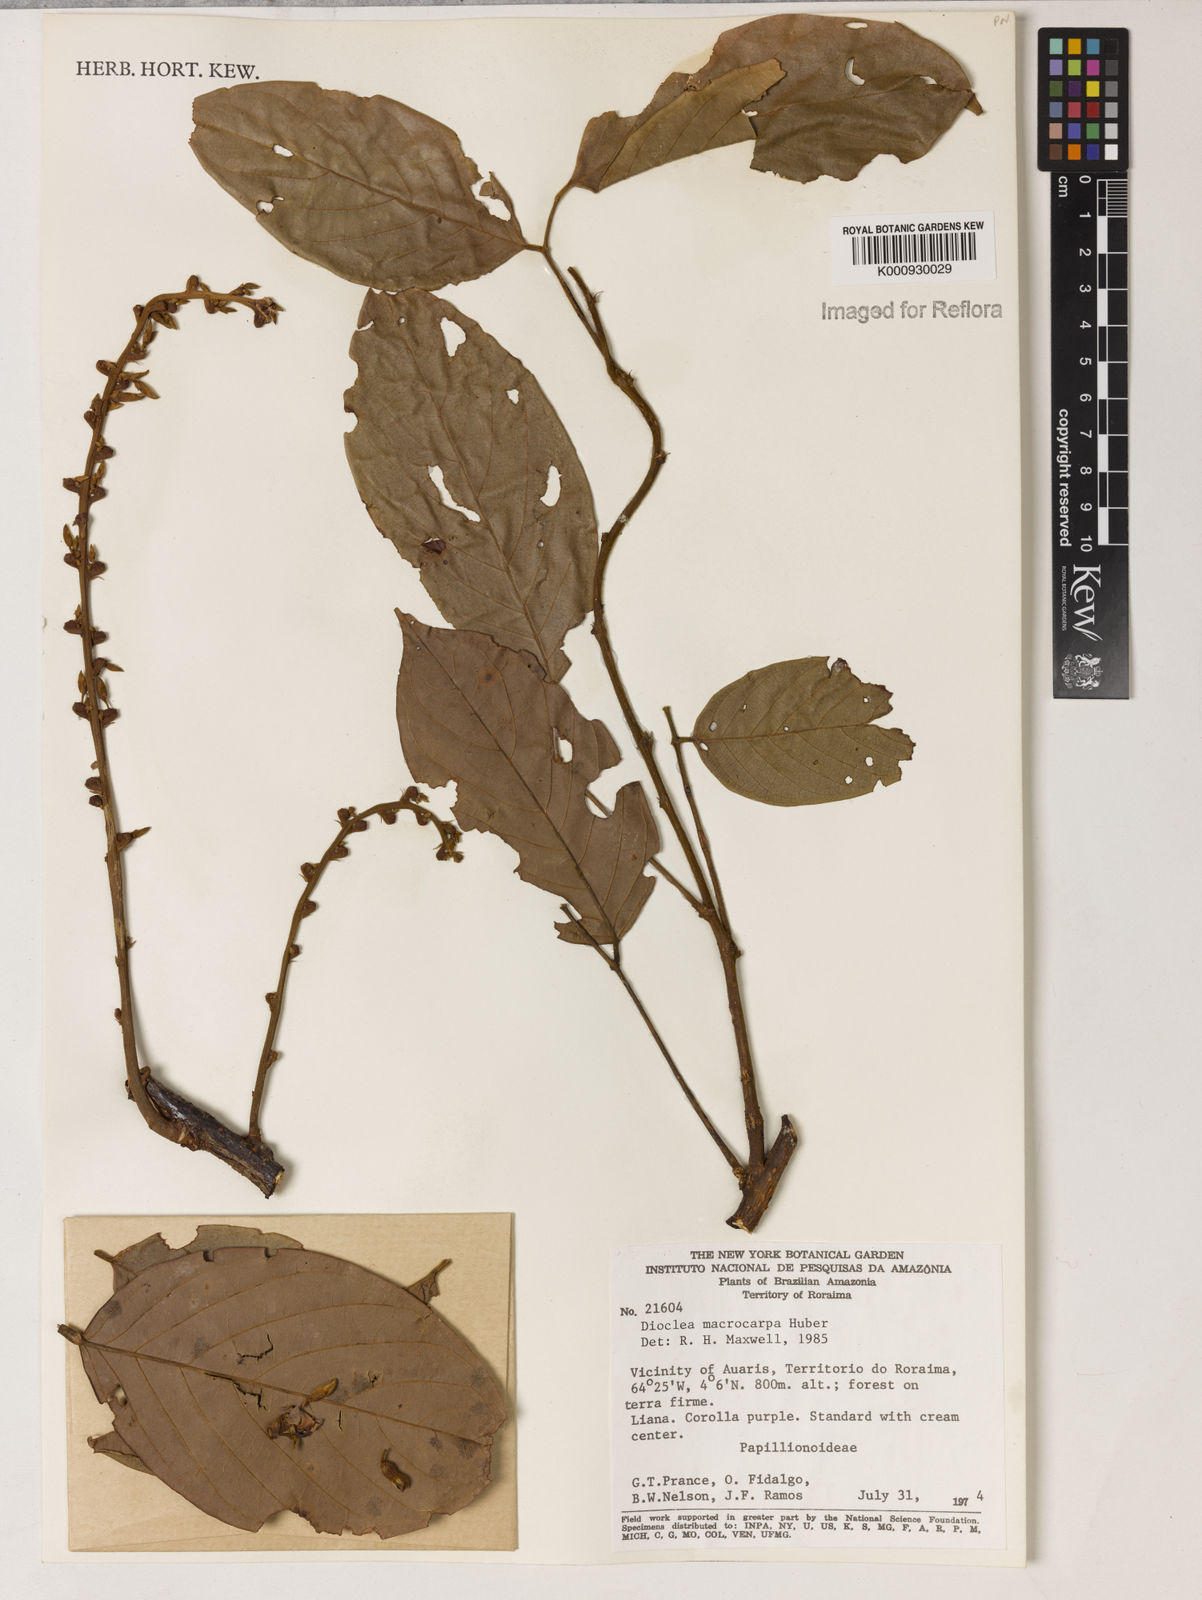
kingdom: Plantae
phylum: Tracheophyta
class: Magnoliopsida
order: Fabales
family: Fabaceae
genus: Macropsychanthus
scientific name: Macropsychanthus macrocarpus
